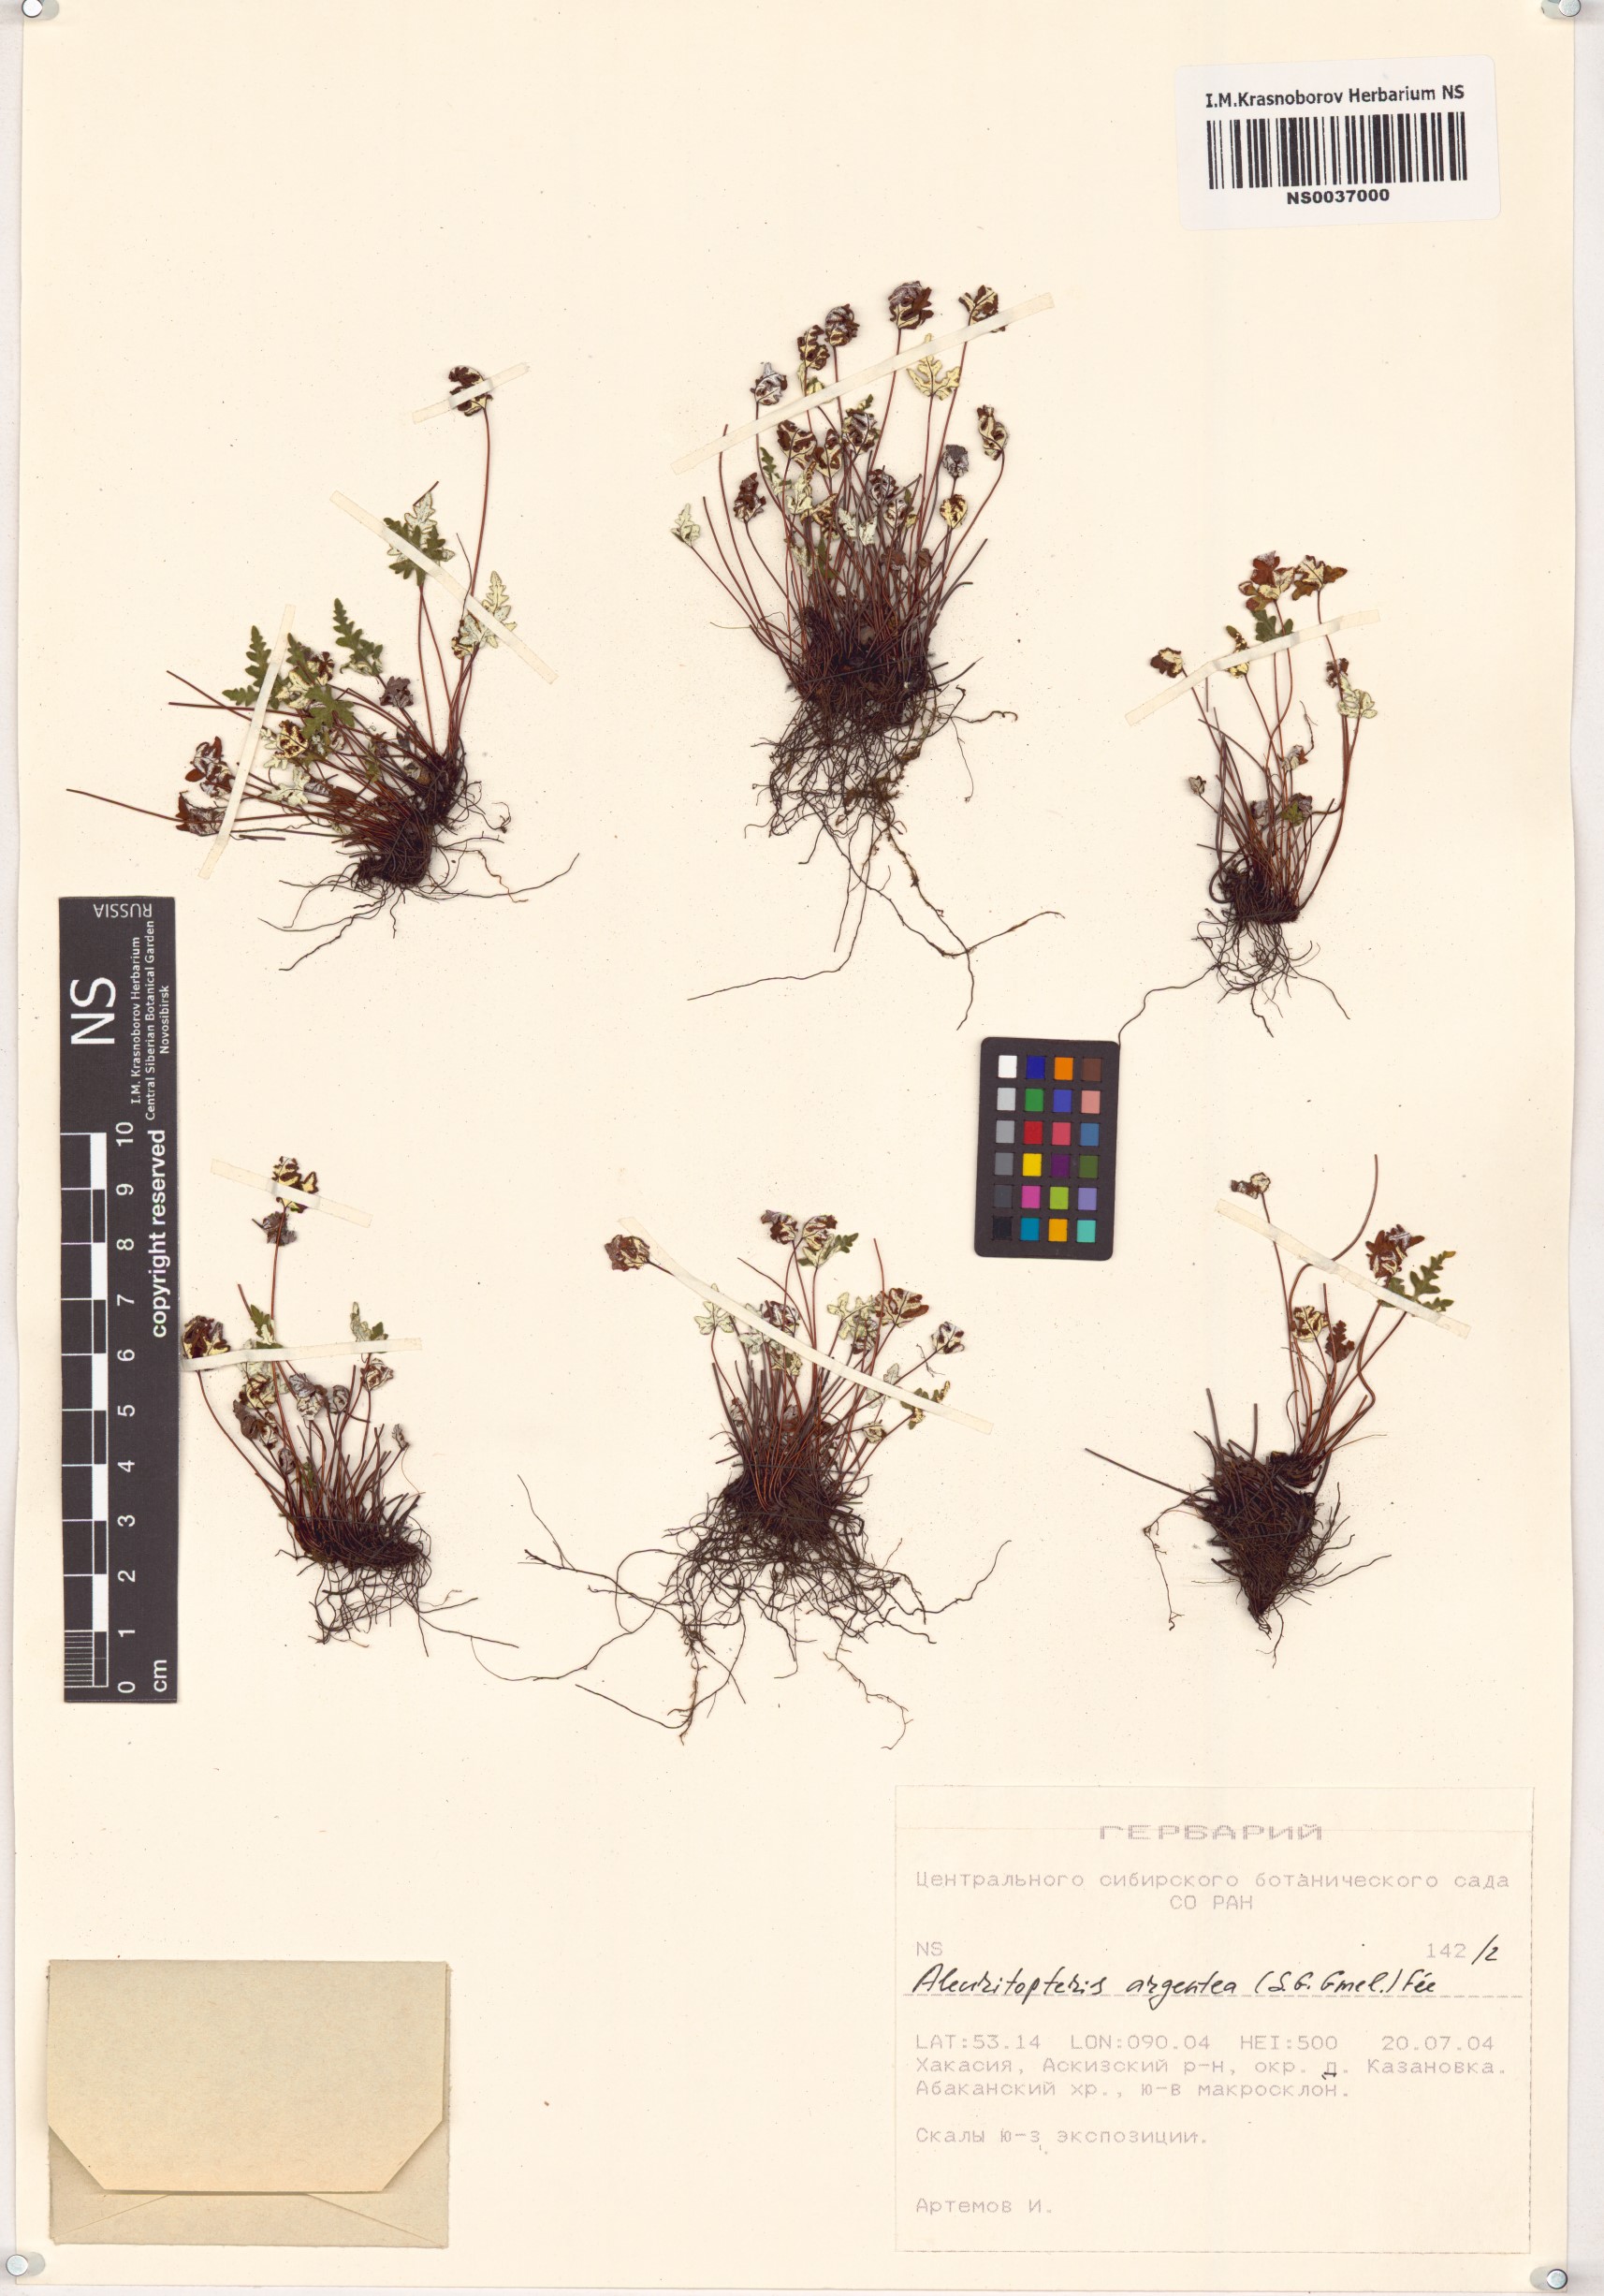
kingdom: Plantae
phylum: Tracheophyta
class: Polypodiopsida
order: Polypodiales
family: Pteridaceae
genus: Aleuritopteris
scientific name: Aleuritopteris argentea
